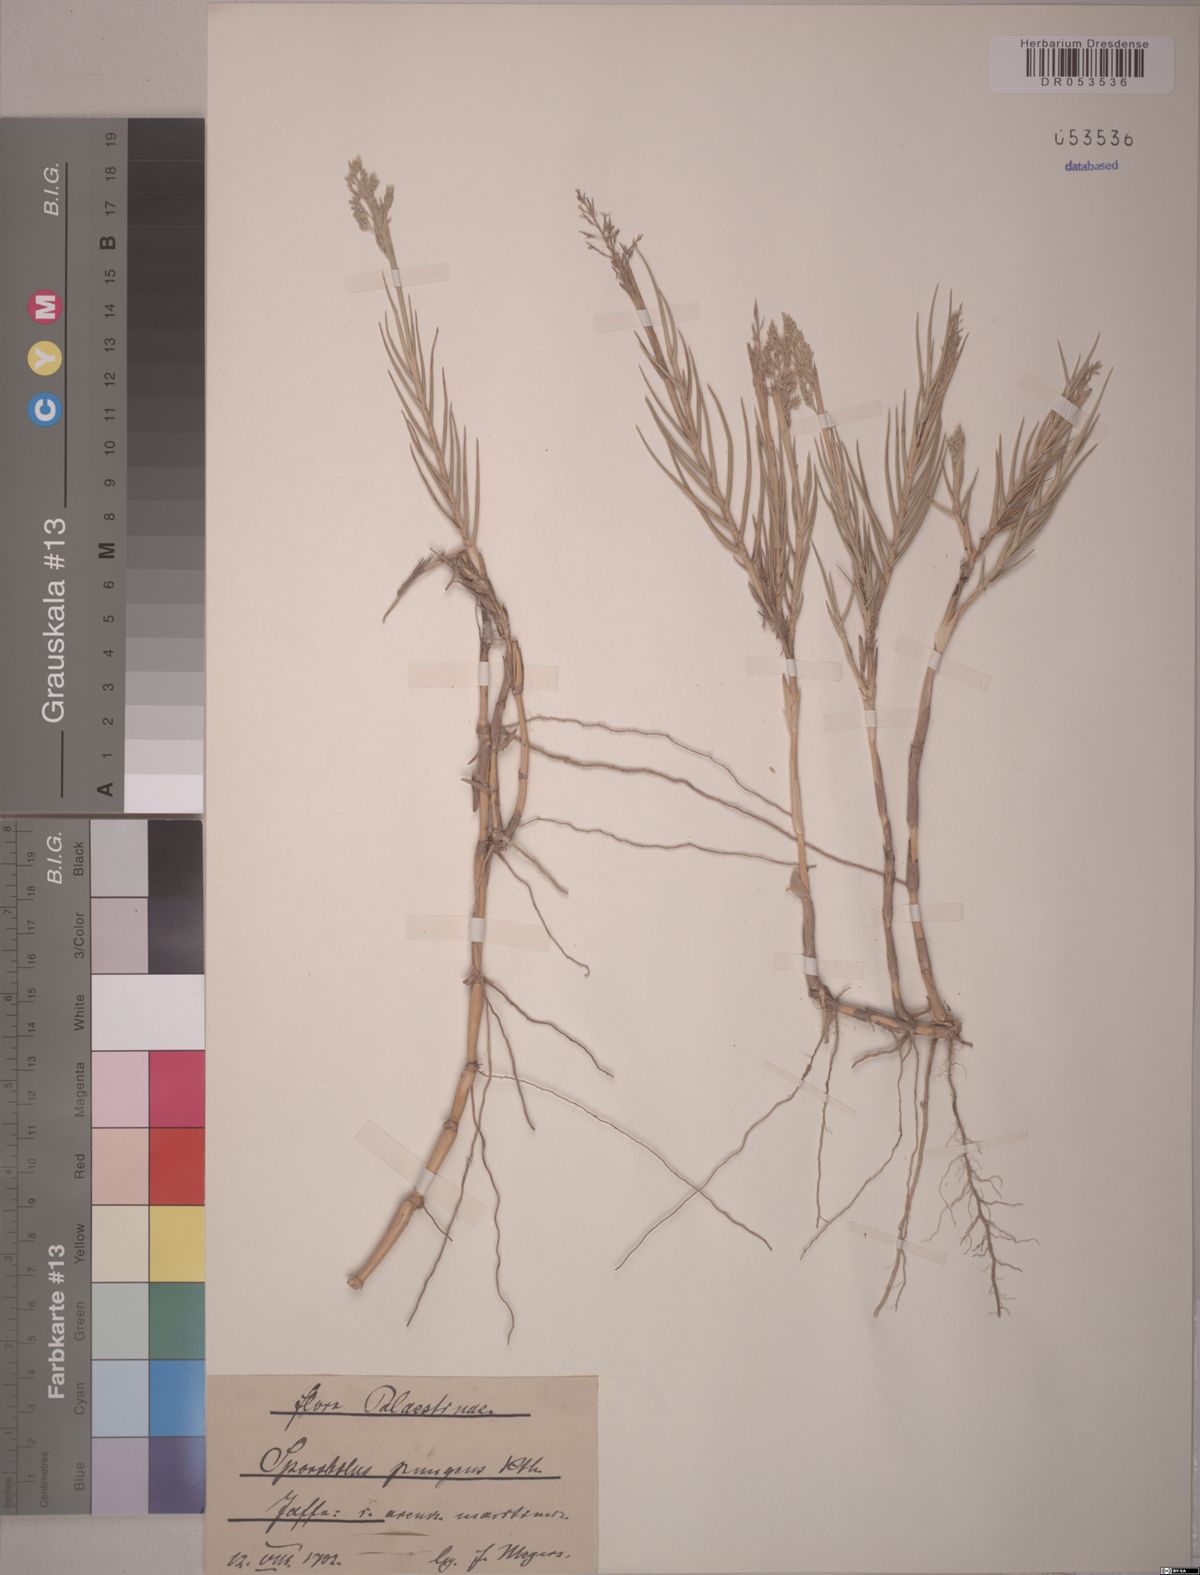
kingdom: Plantae
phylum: Tracheophyta
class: Liliopsida
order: Poales
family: Poaceae
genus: Sporobolus
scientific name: Sporobolus pungens
